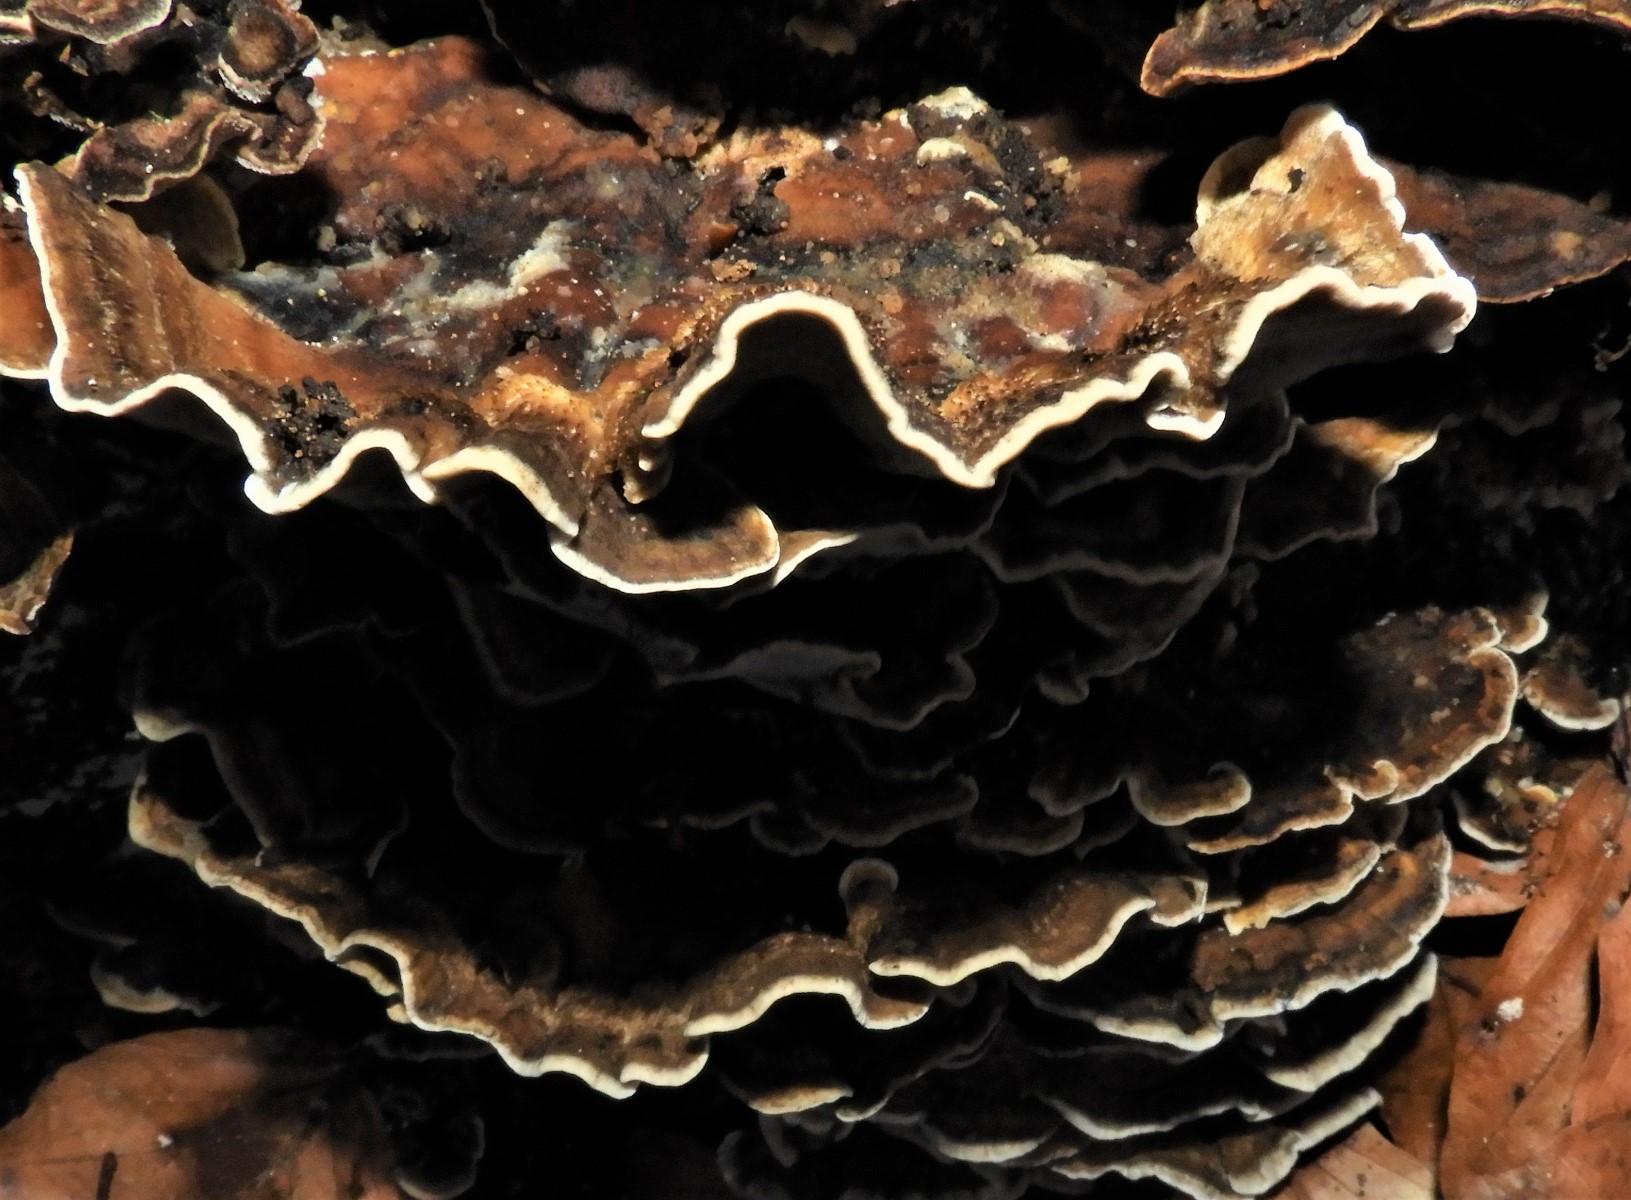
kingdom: Fungi
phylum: Basidiomycota
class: Agaricomycetes
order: Polyporales
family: Phanerochaetaceae
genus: Bjerkandera
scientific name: Bjerkandera adusta
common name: sveden sodporesvamp
